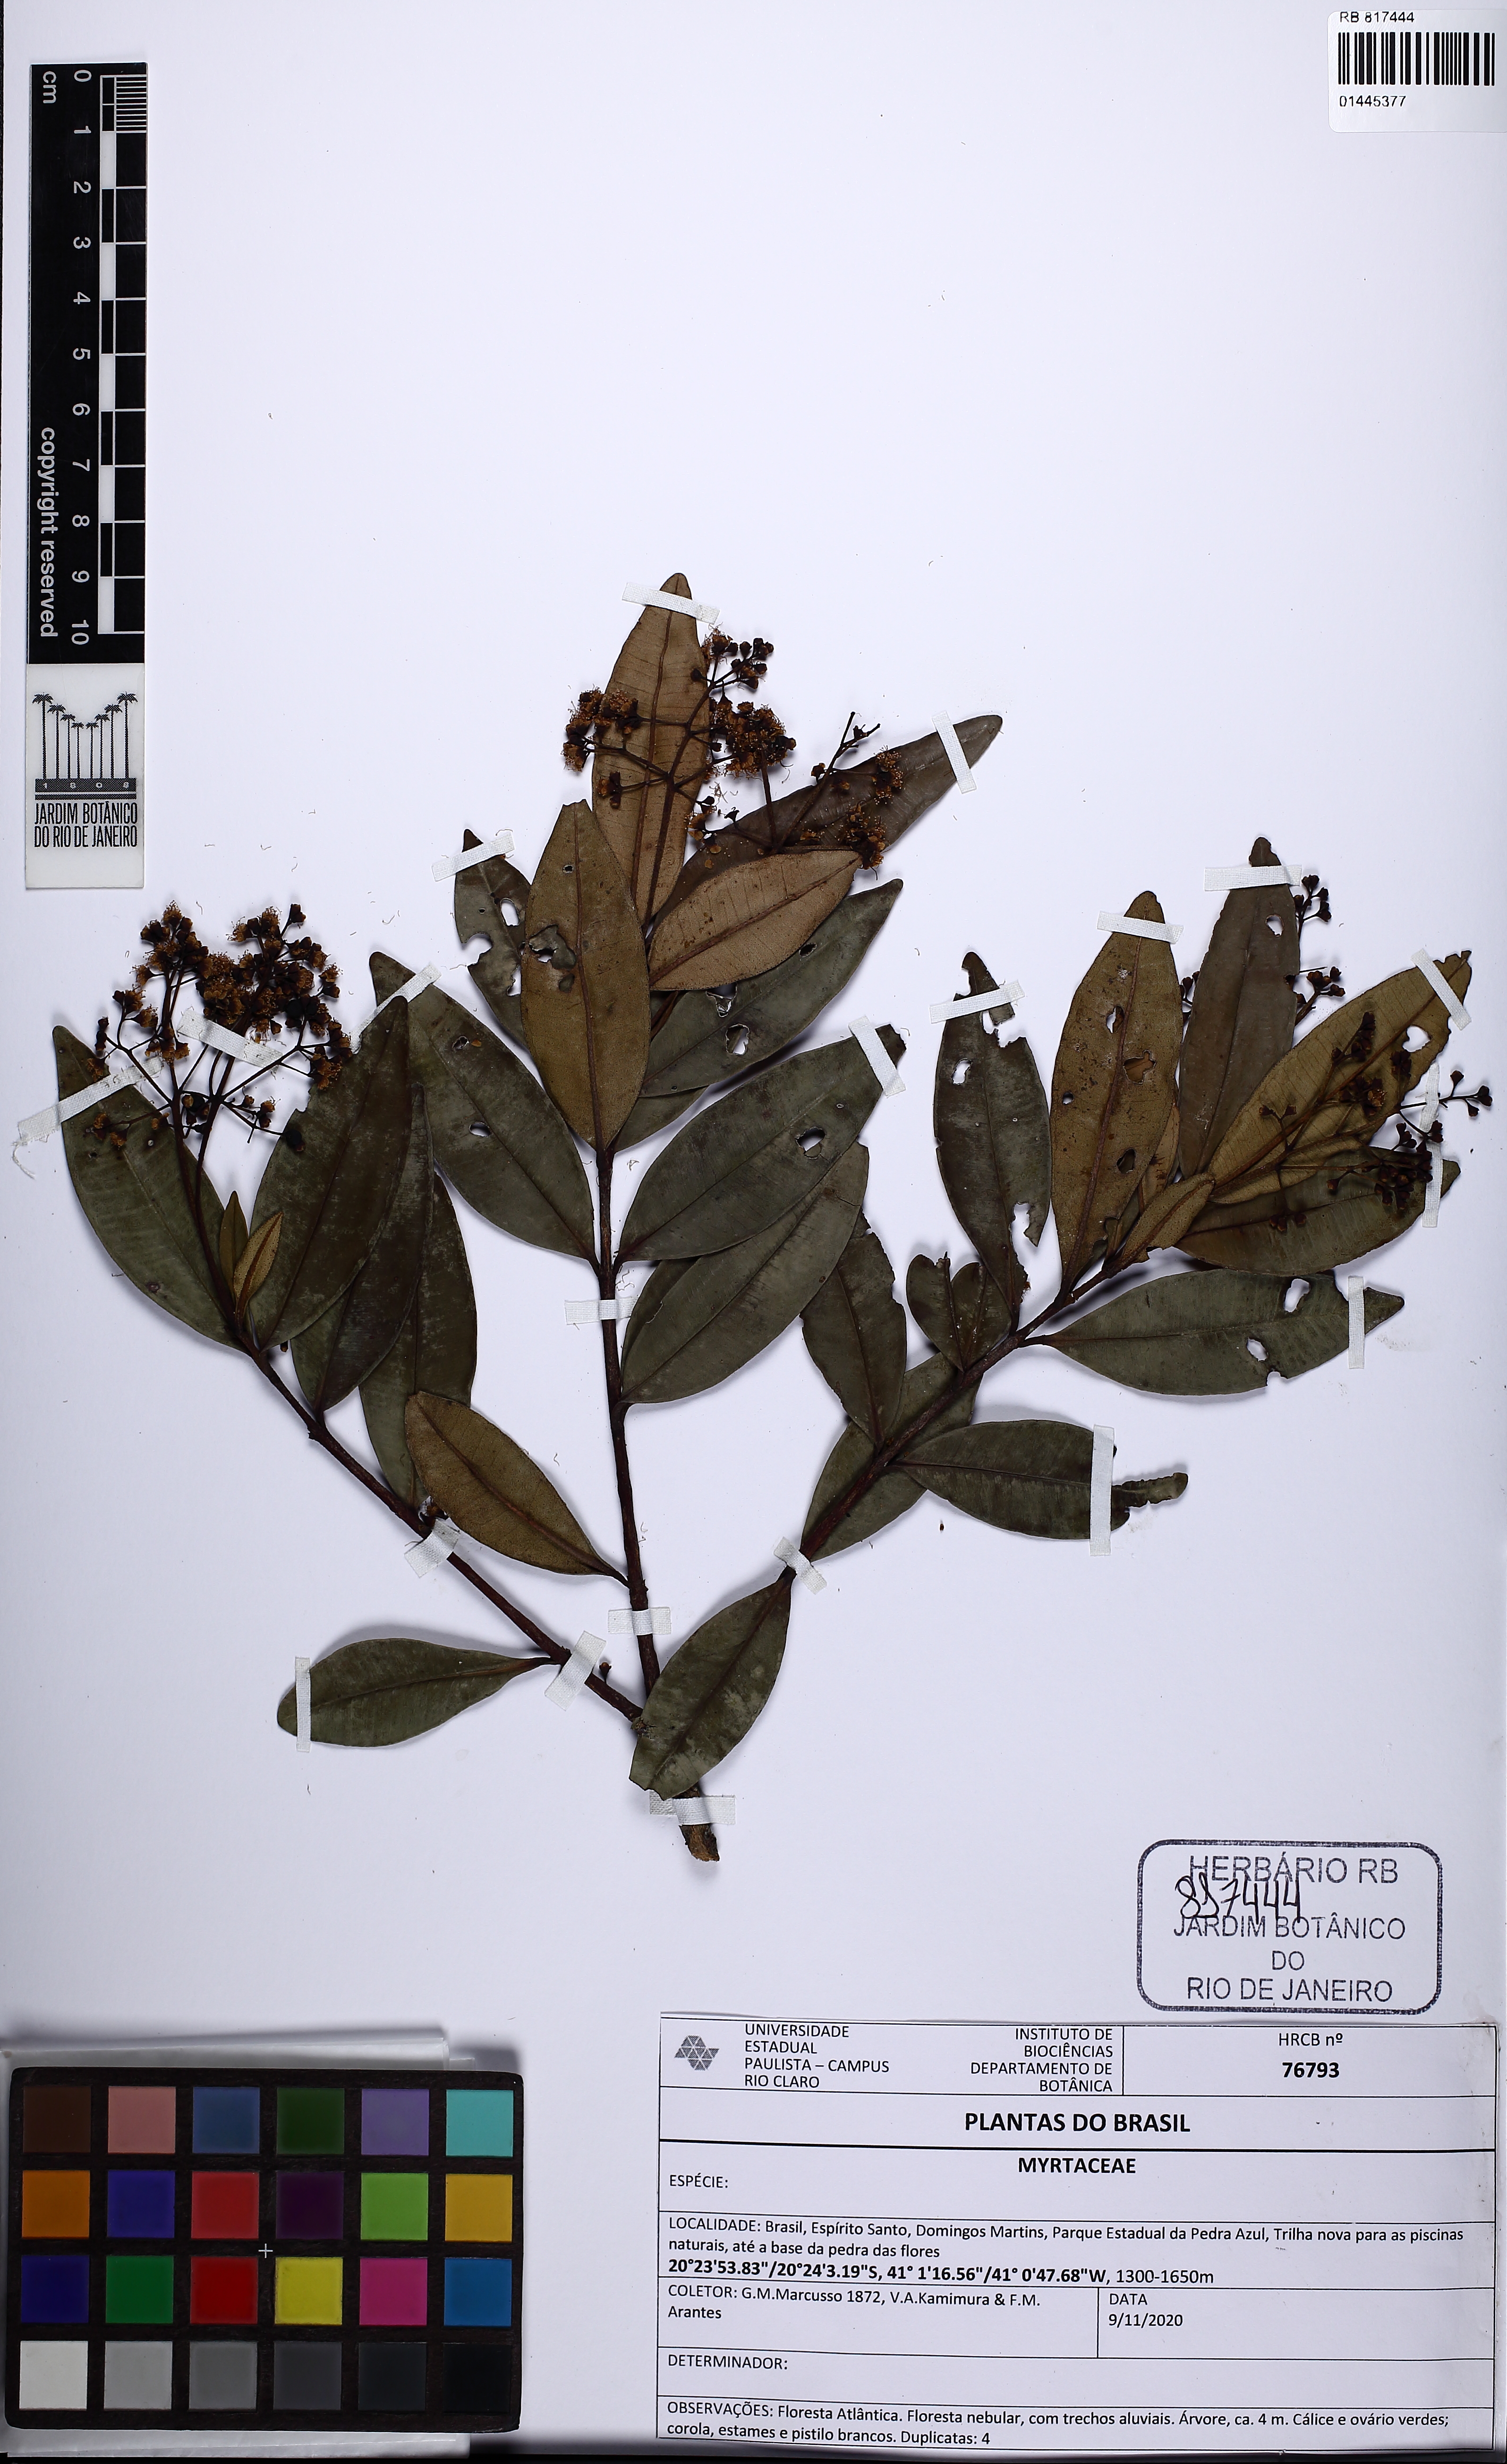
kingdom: Plantae
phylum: Tracheophyta
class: Magnoliopsida
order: Myrtales
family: Myrtaceae
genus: Myrcia
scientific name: Myrcia oblongata
